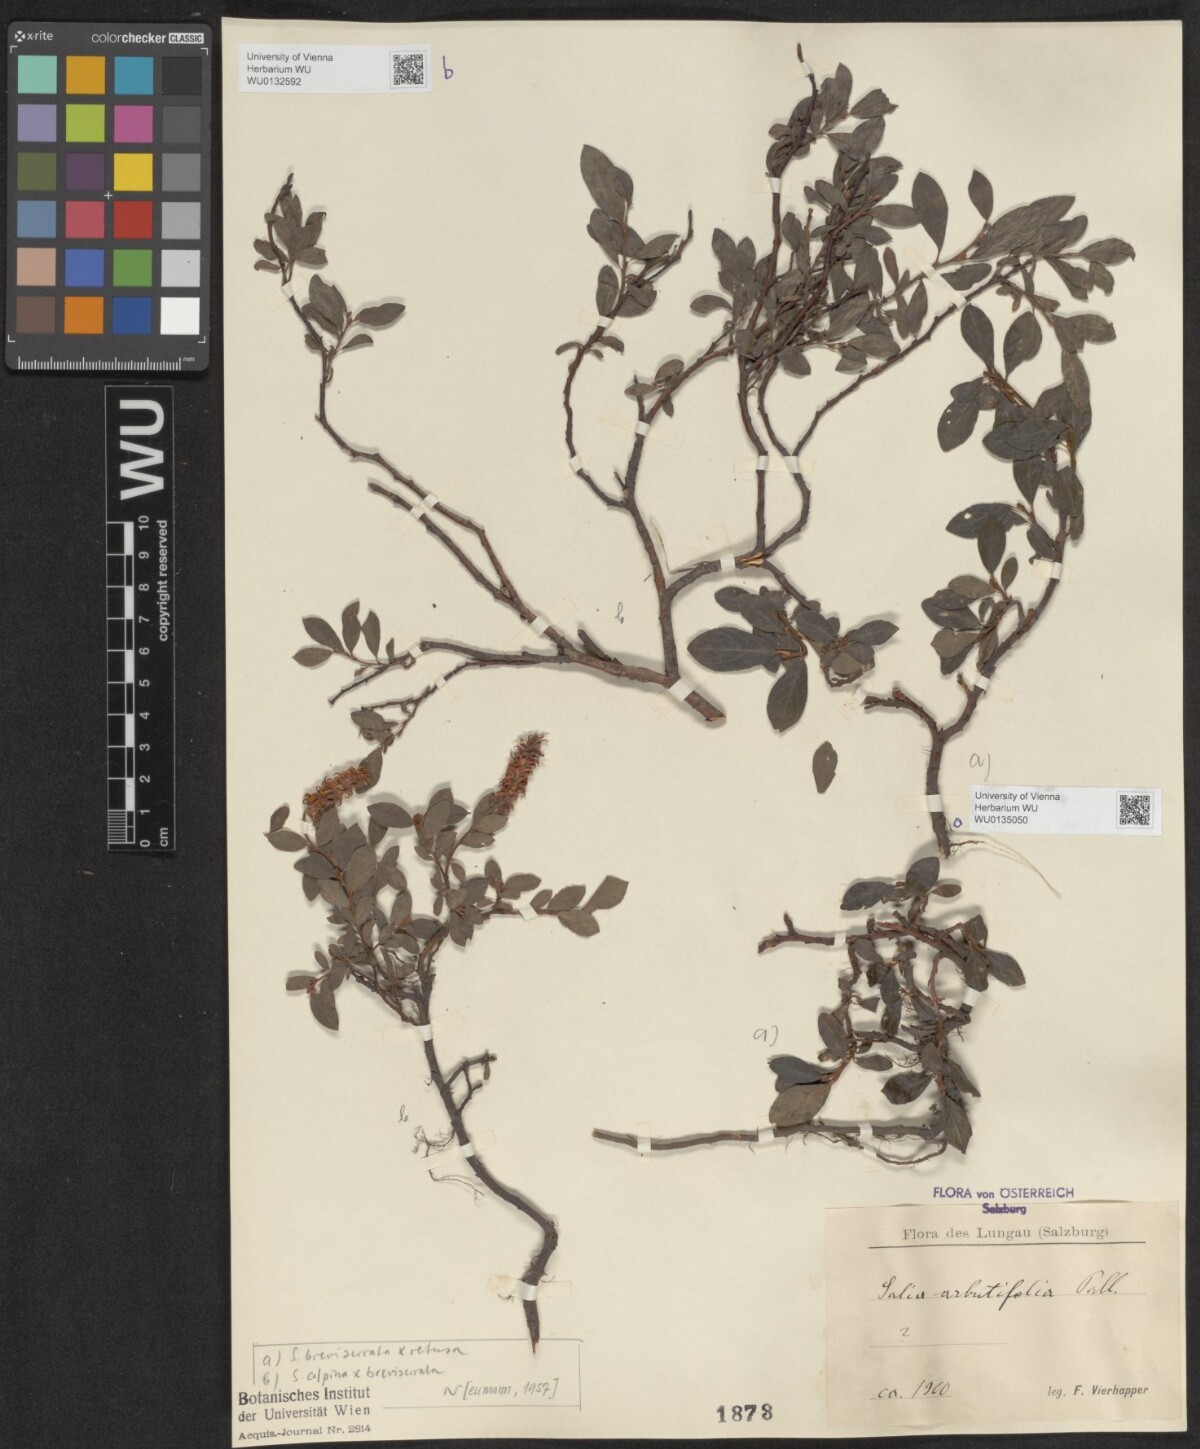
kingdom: Plantae
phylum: Tracheophyta
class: Magnoliopsida
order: Malpighiales
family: Salicaceae
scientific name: Salicaceae
